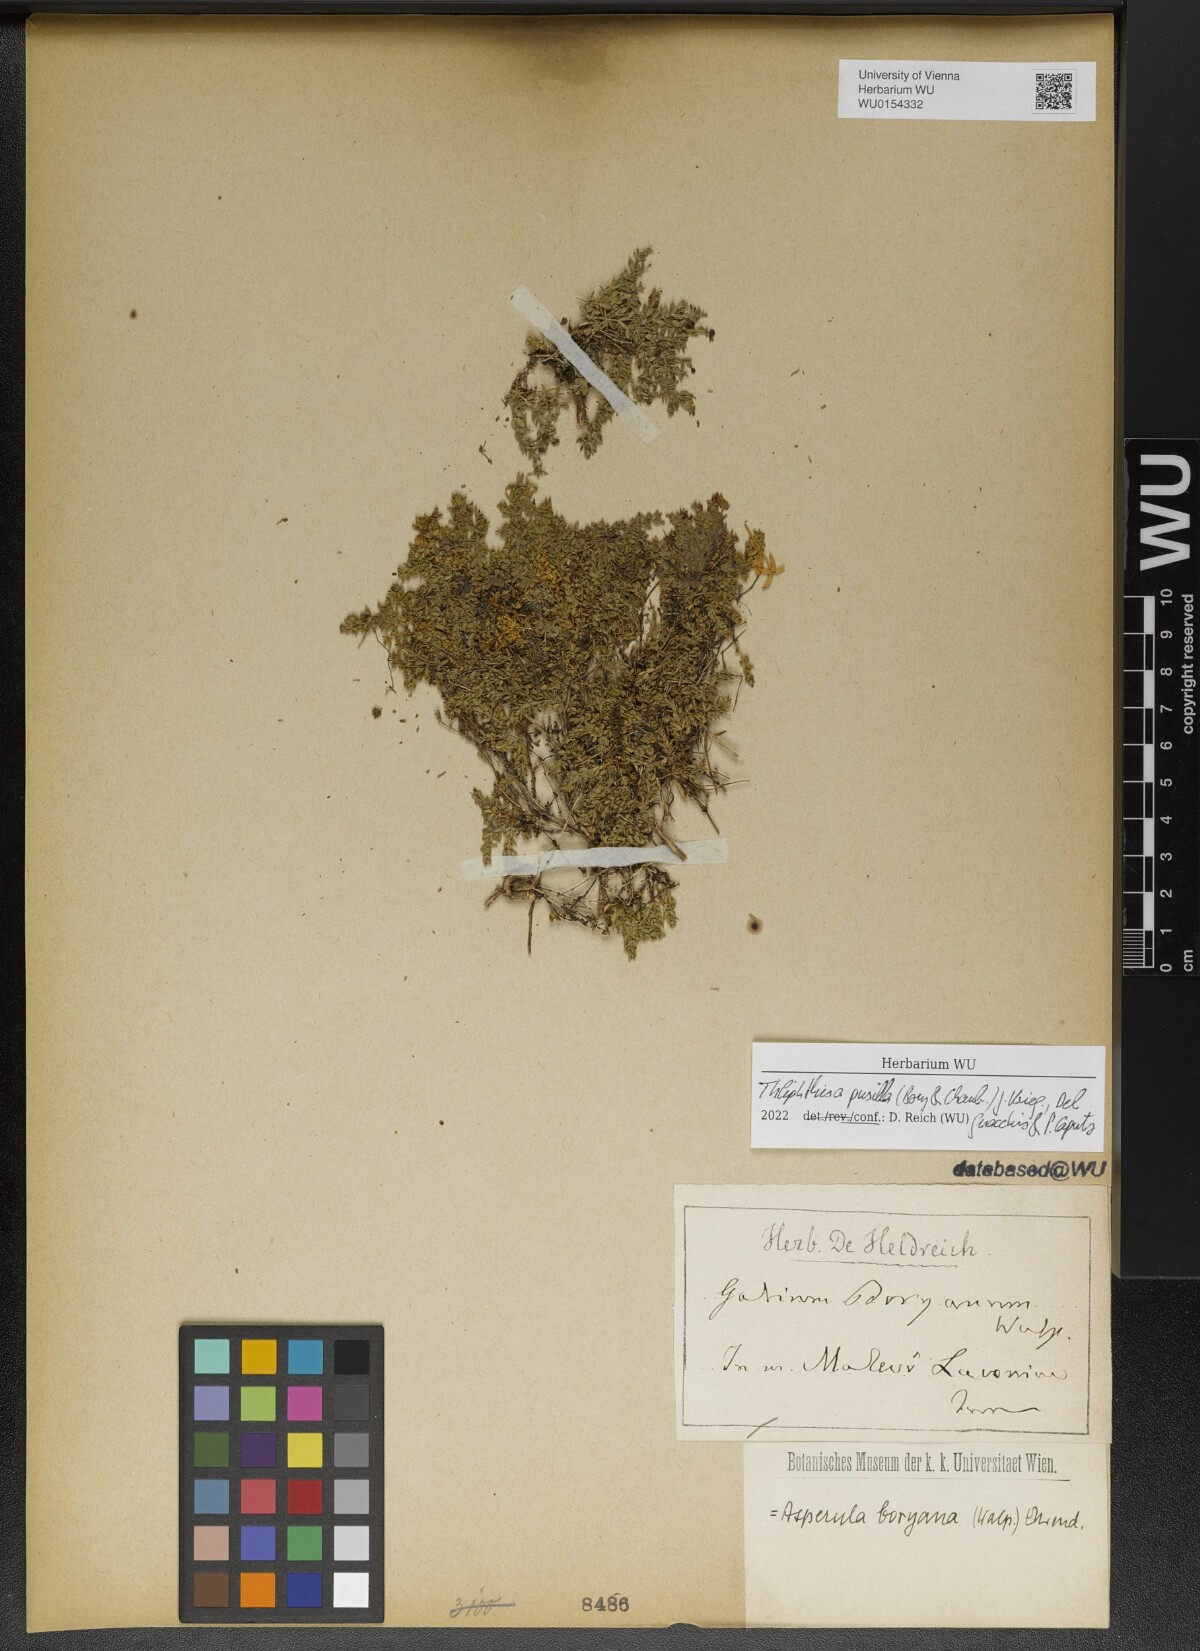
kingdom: Plantae
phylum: Tracheophyta
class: Magnoliopsida
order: Gentianales
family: Rubiaceae
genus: Thliphthisa
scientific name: Thliphthisa pusilla
